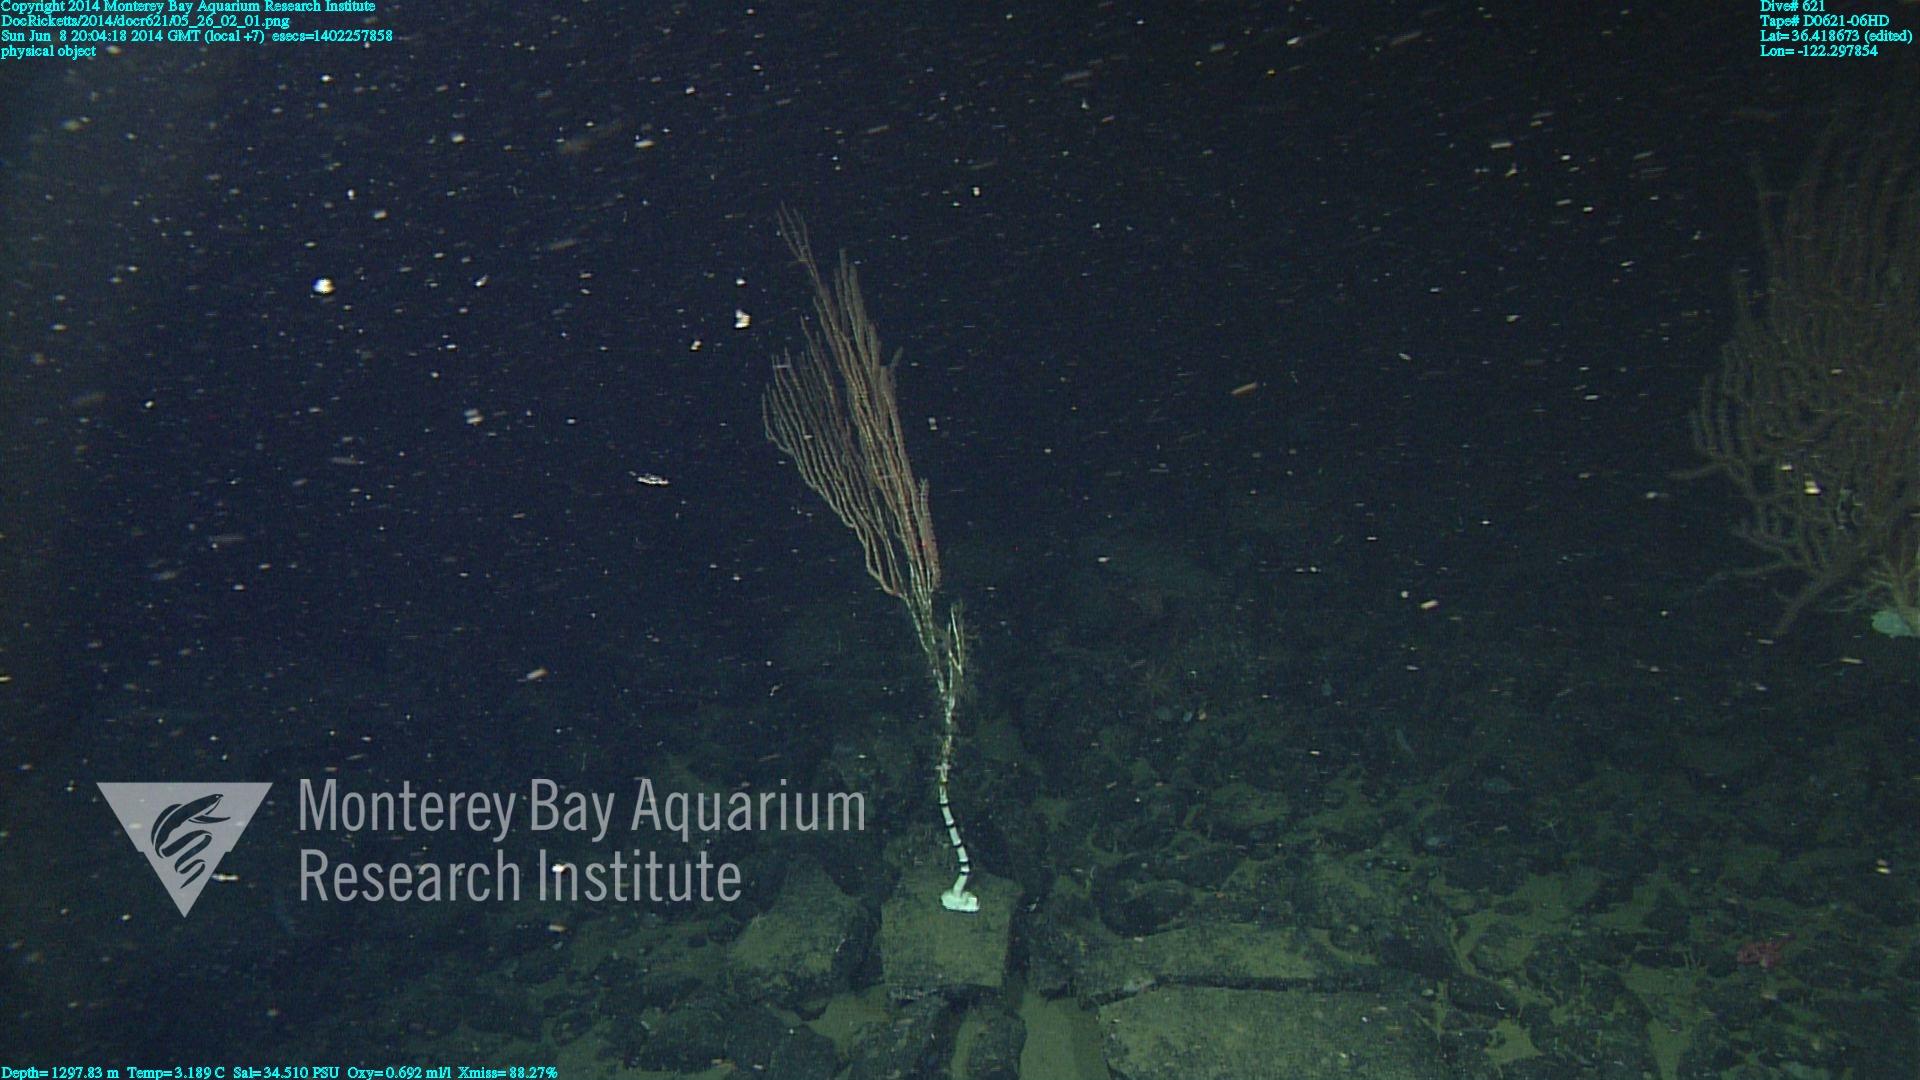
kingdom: Animalia
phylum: Cnidaria
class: Anthozoa
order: Scleralcyonacea
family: Keratoisididae
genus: Isidella
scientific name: Isidella
